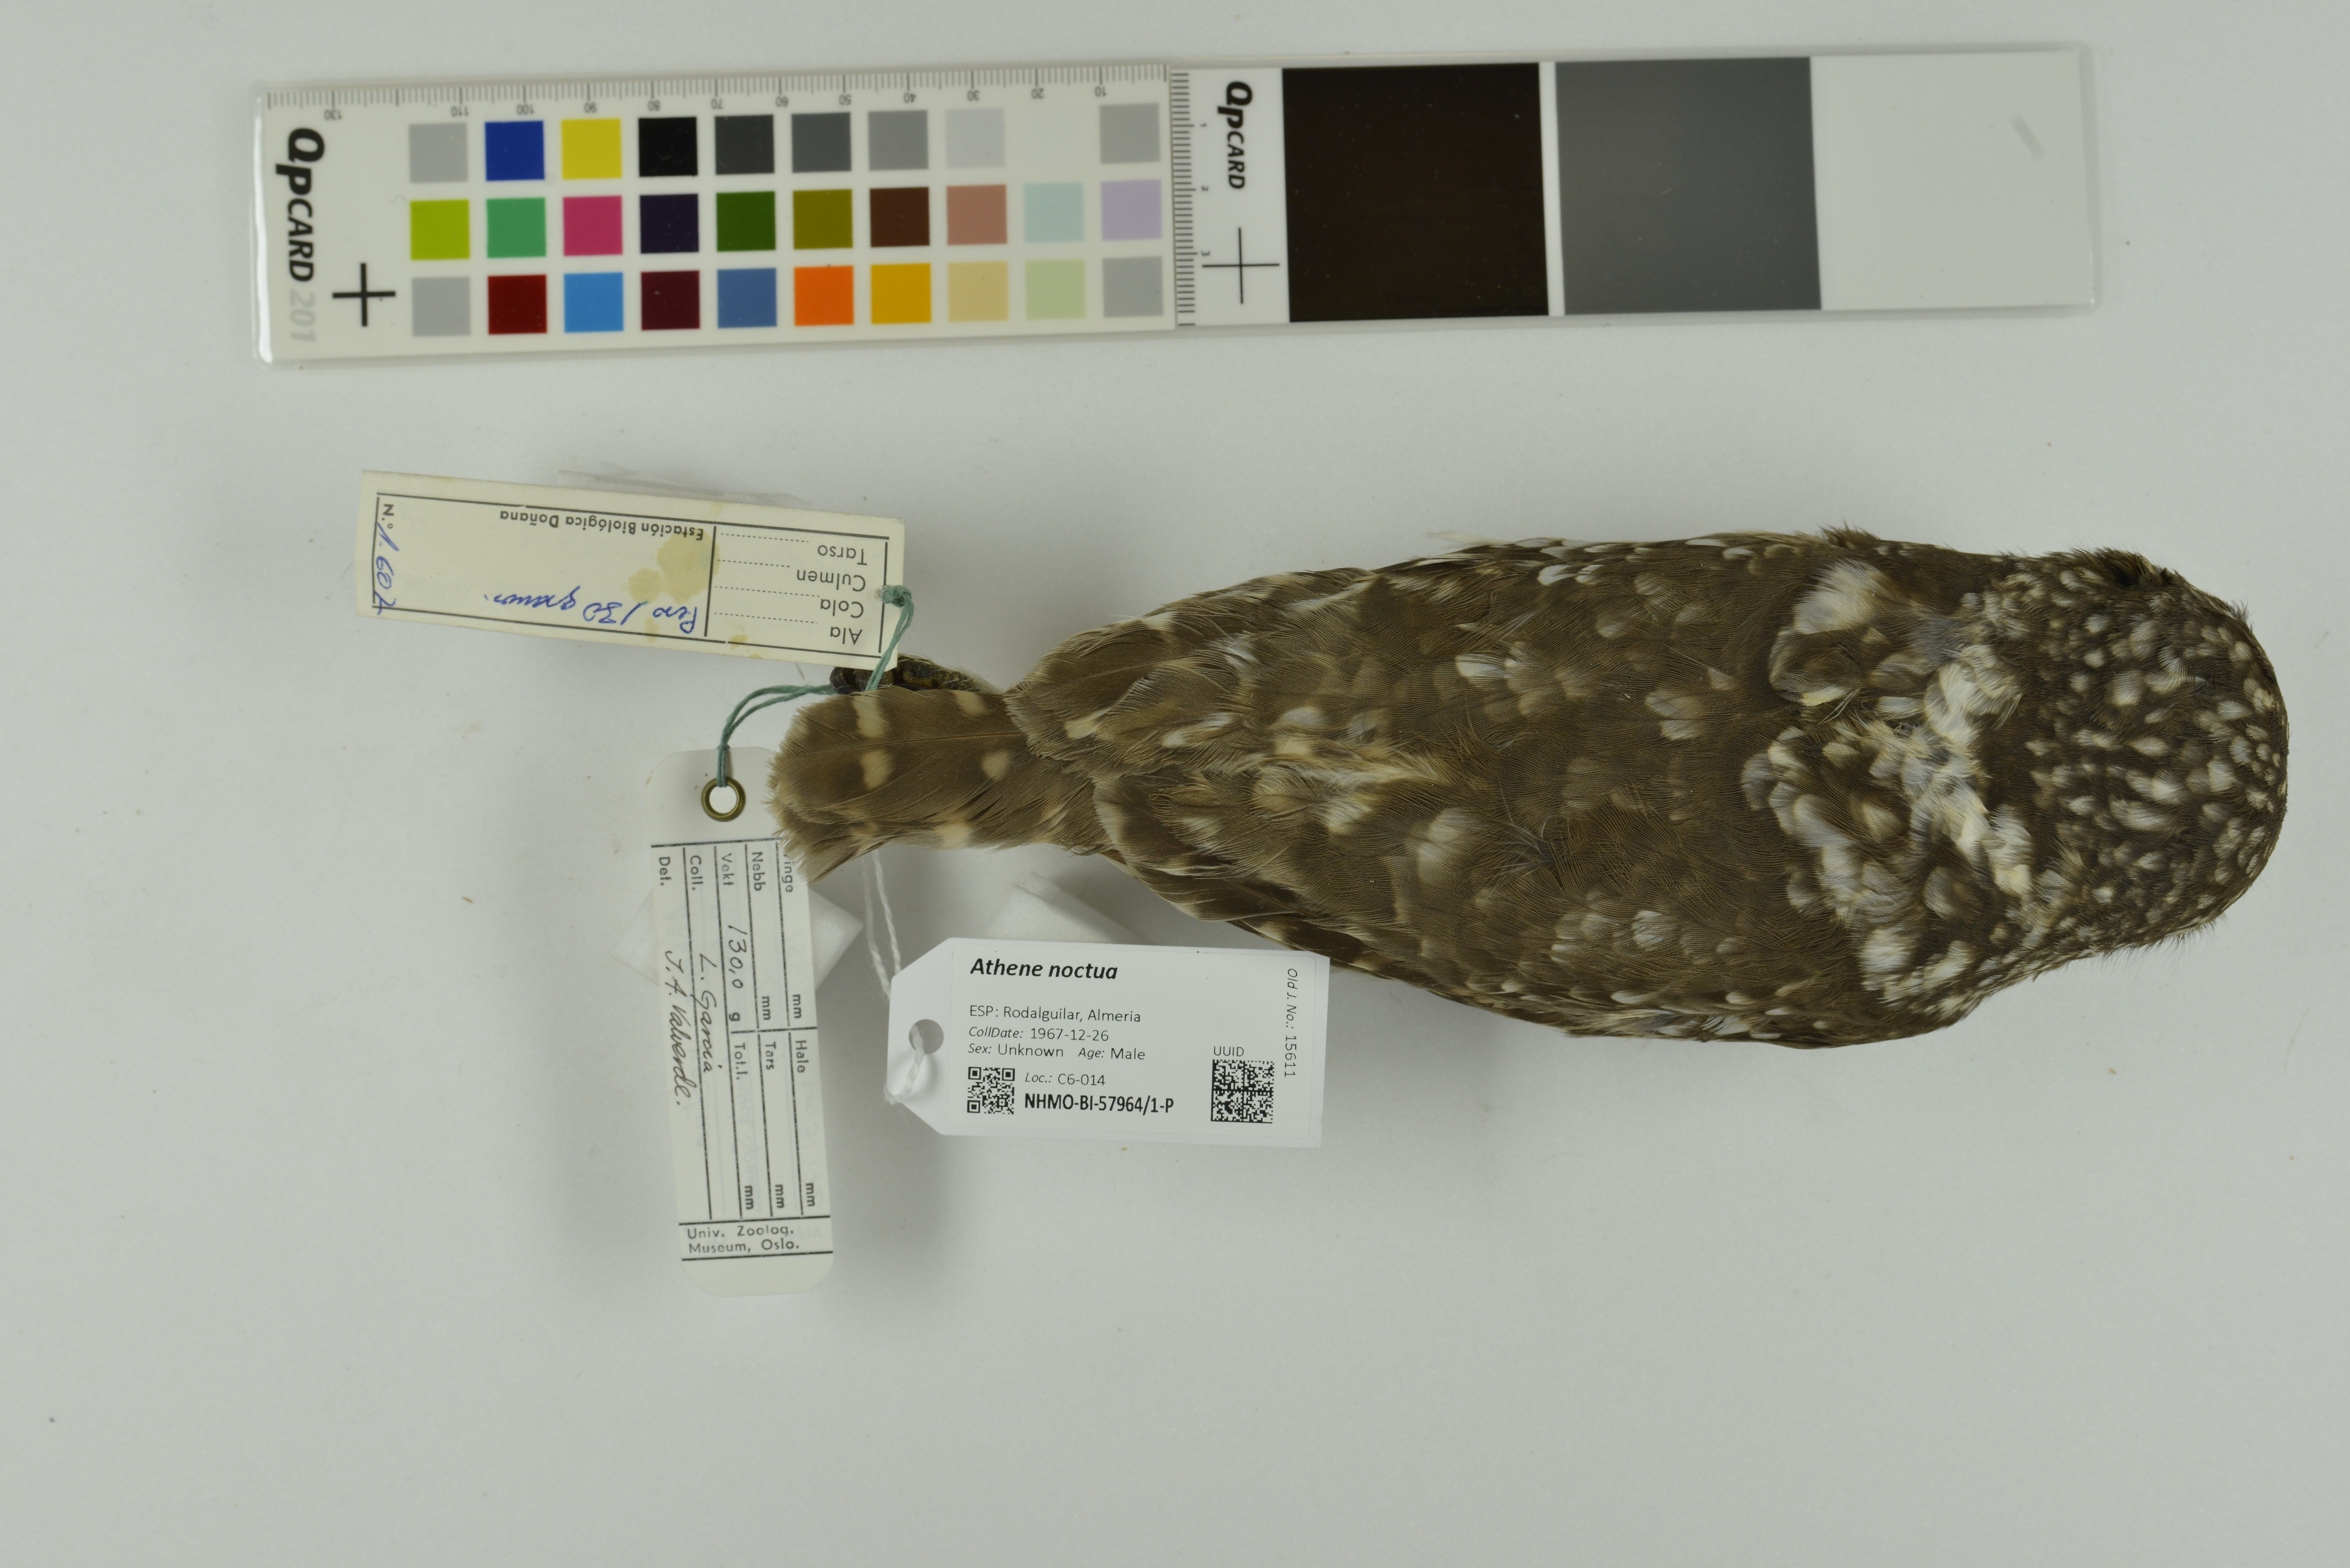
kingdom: Animalia
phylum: Chordata
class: Aves
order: Strigiformes
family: Strigidae
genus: Athene
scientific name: Athene noctua
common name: Little owl
